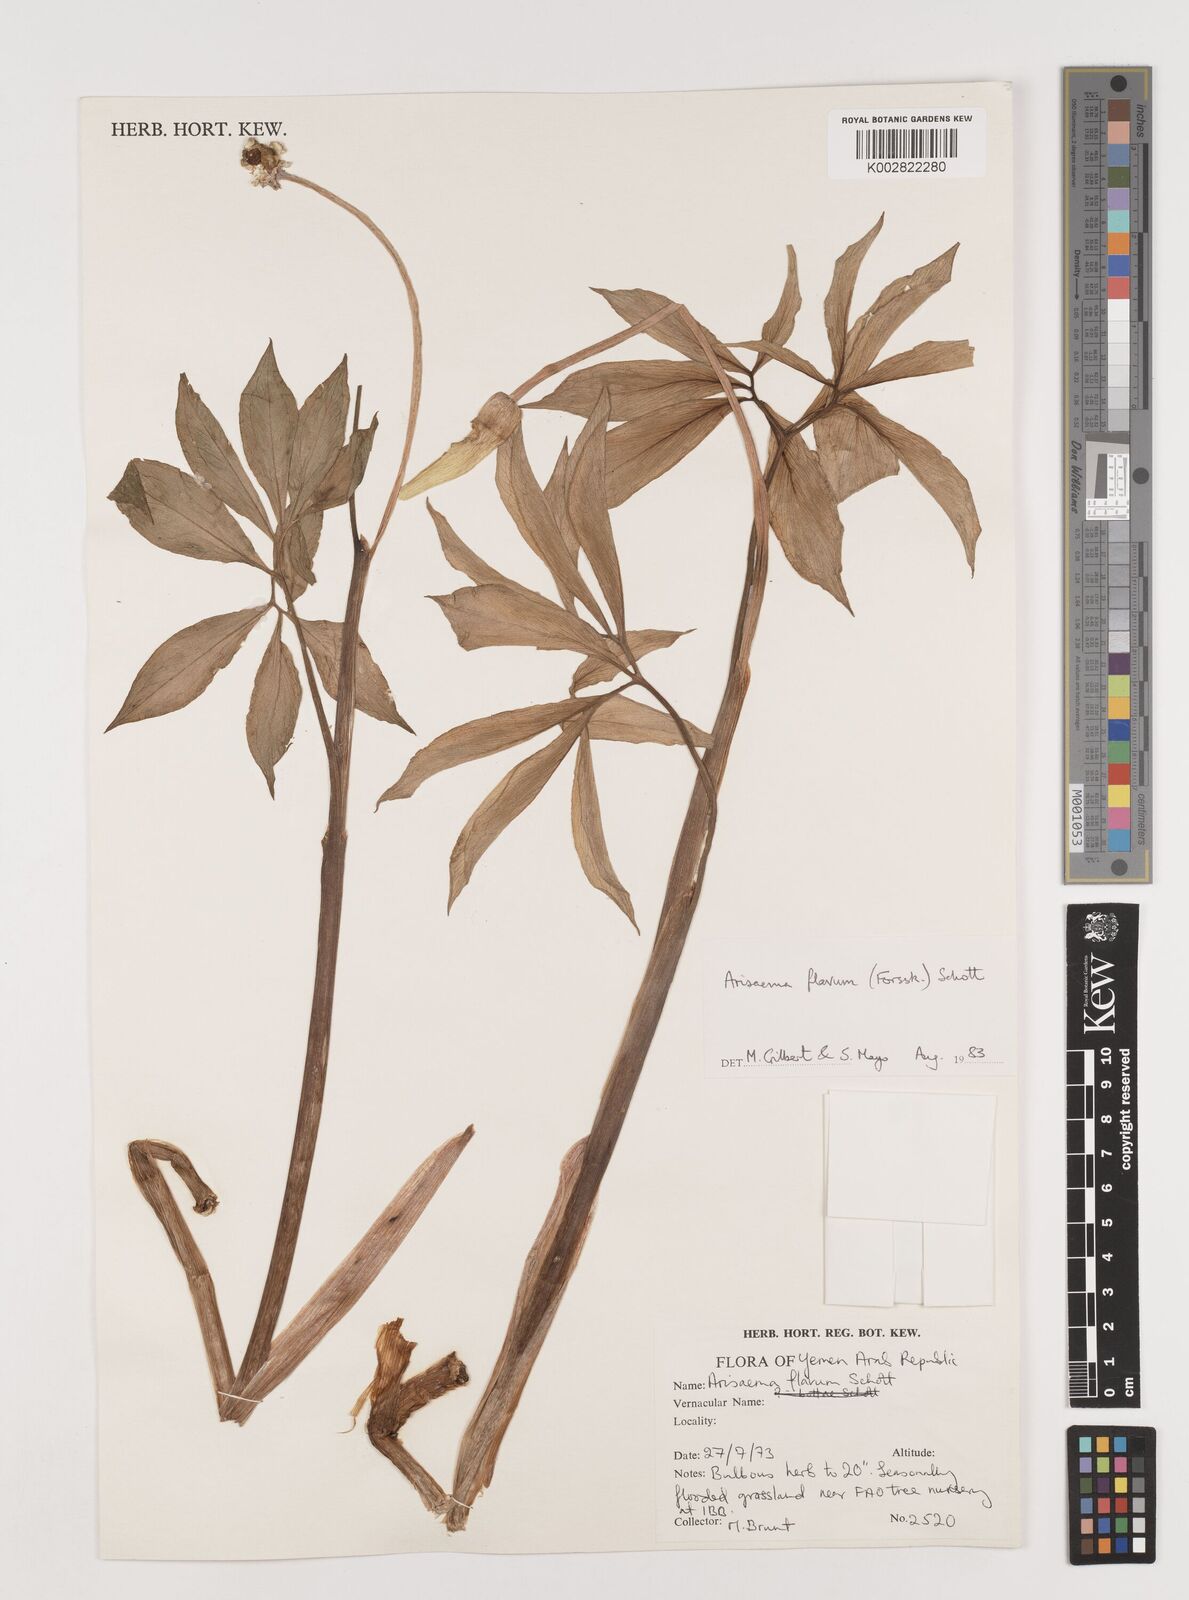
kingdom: Plantae
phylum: Tracheophyta
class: Liliopsida
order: Alismatales
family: Araceae
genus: Arisaema
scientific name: Arisaema flavum
